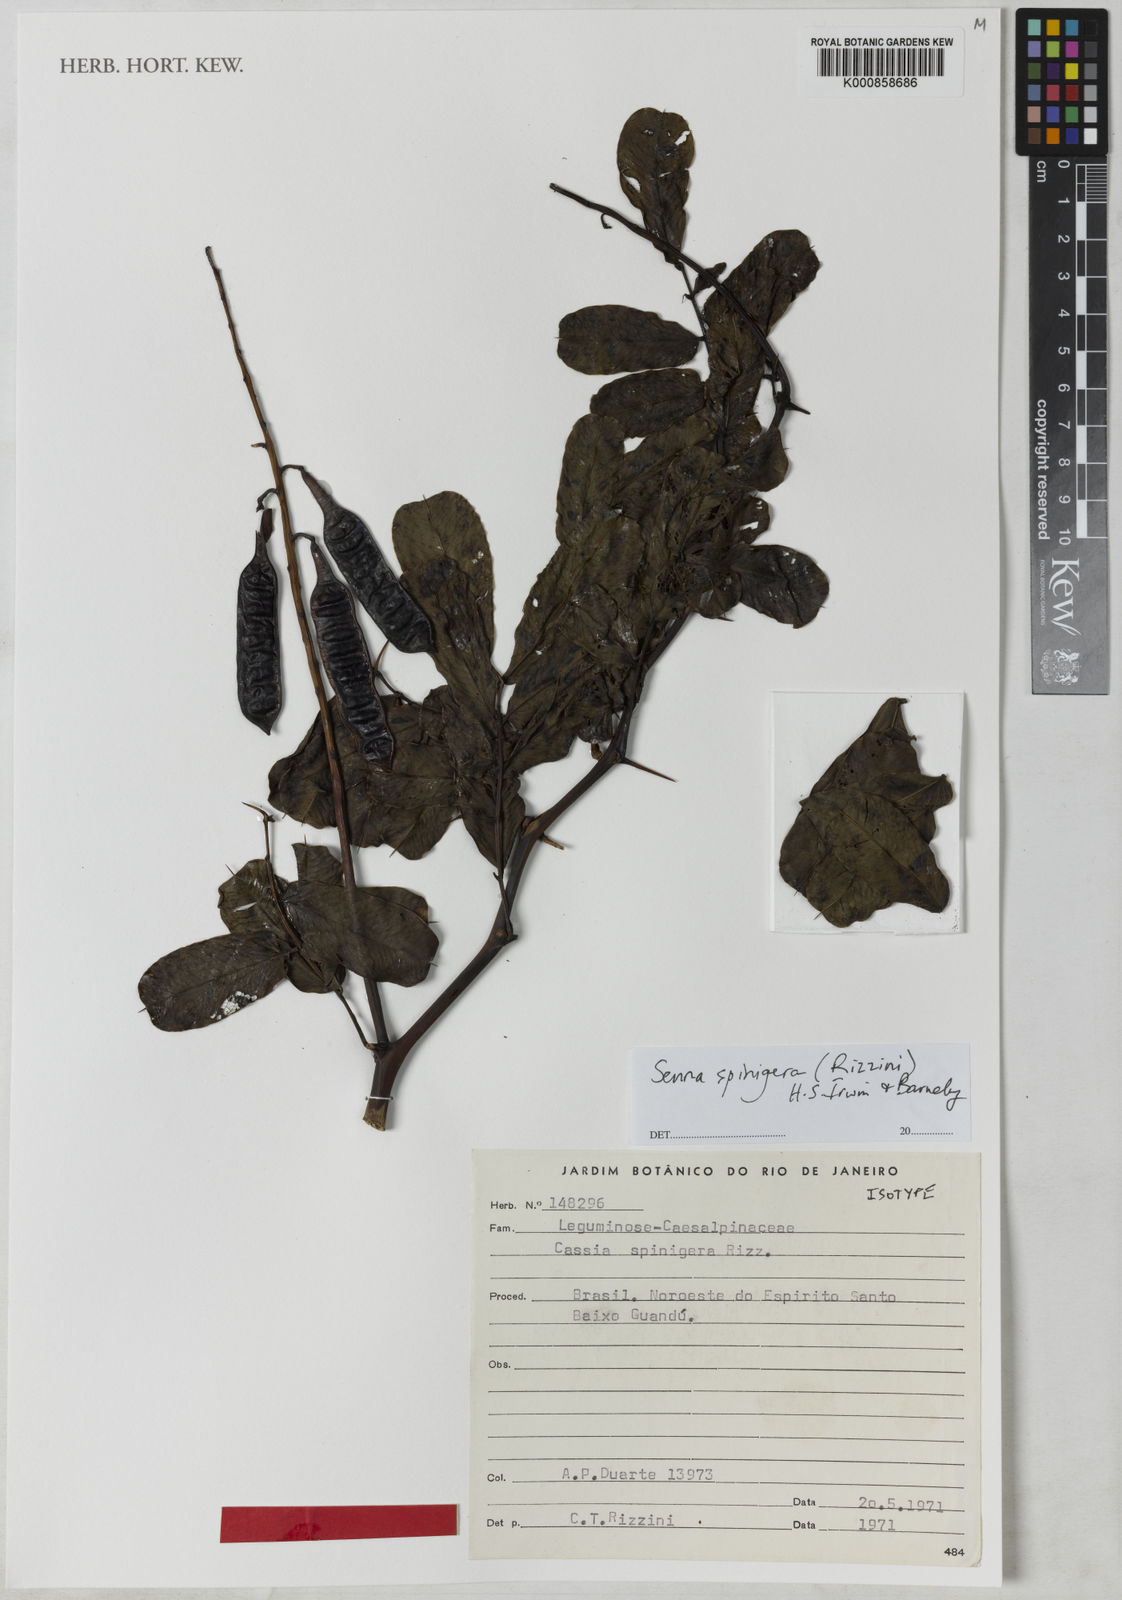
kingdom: Plantae
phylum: Tracheophyta
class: Magnoliopsida
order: Fabales
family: Fabaceae
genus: Senna
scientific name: Senna spinigera
